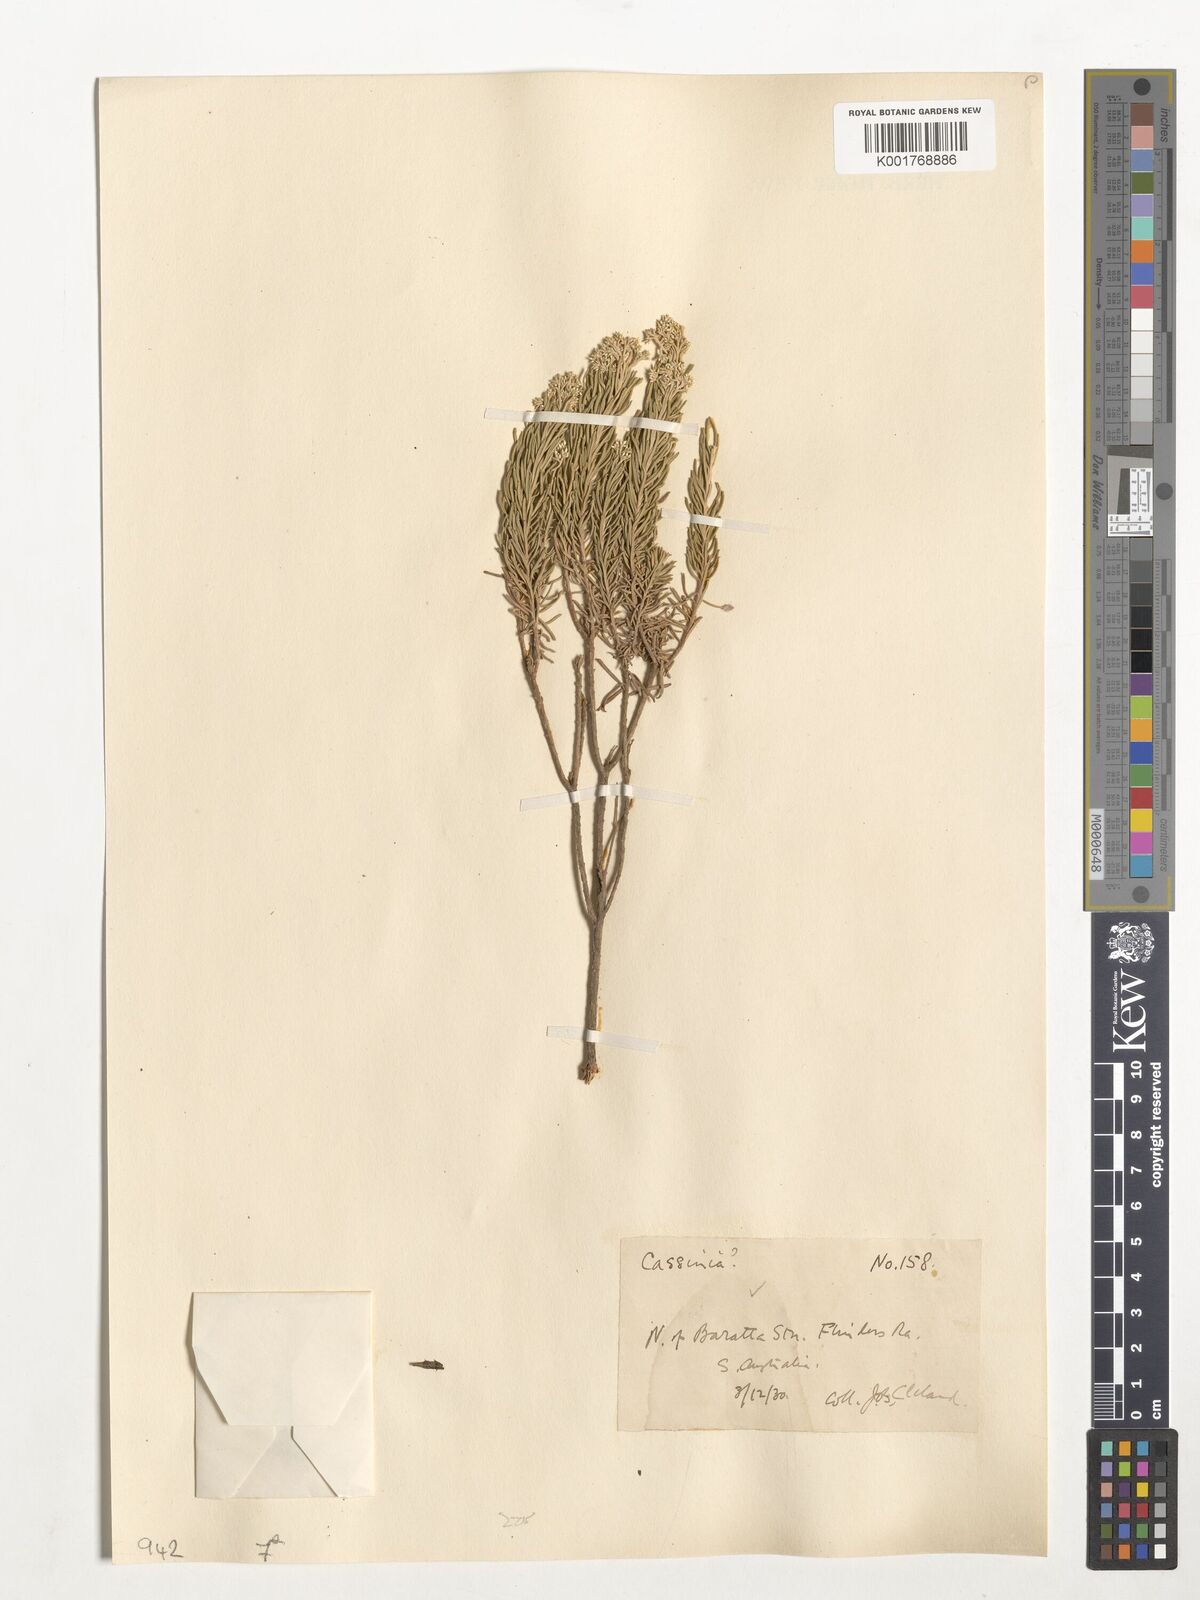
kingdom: Plantae
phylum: Tracheophyta
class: Magnoliopsida
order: Asterales
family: Asteraceae
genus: Cassinia
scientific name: Cassinia
